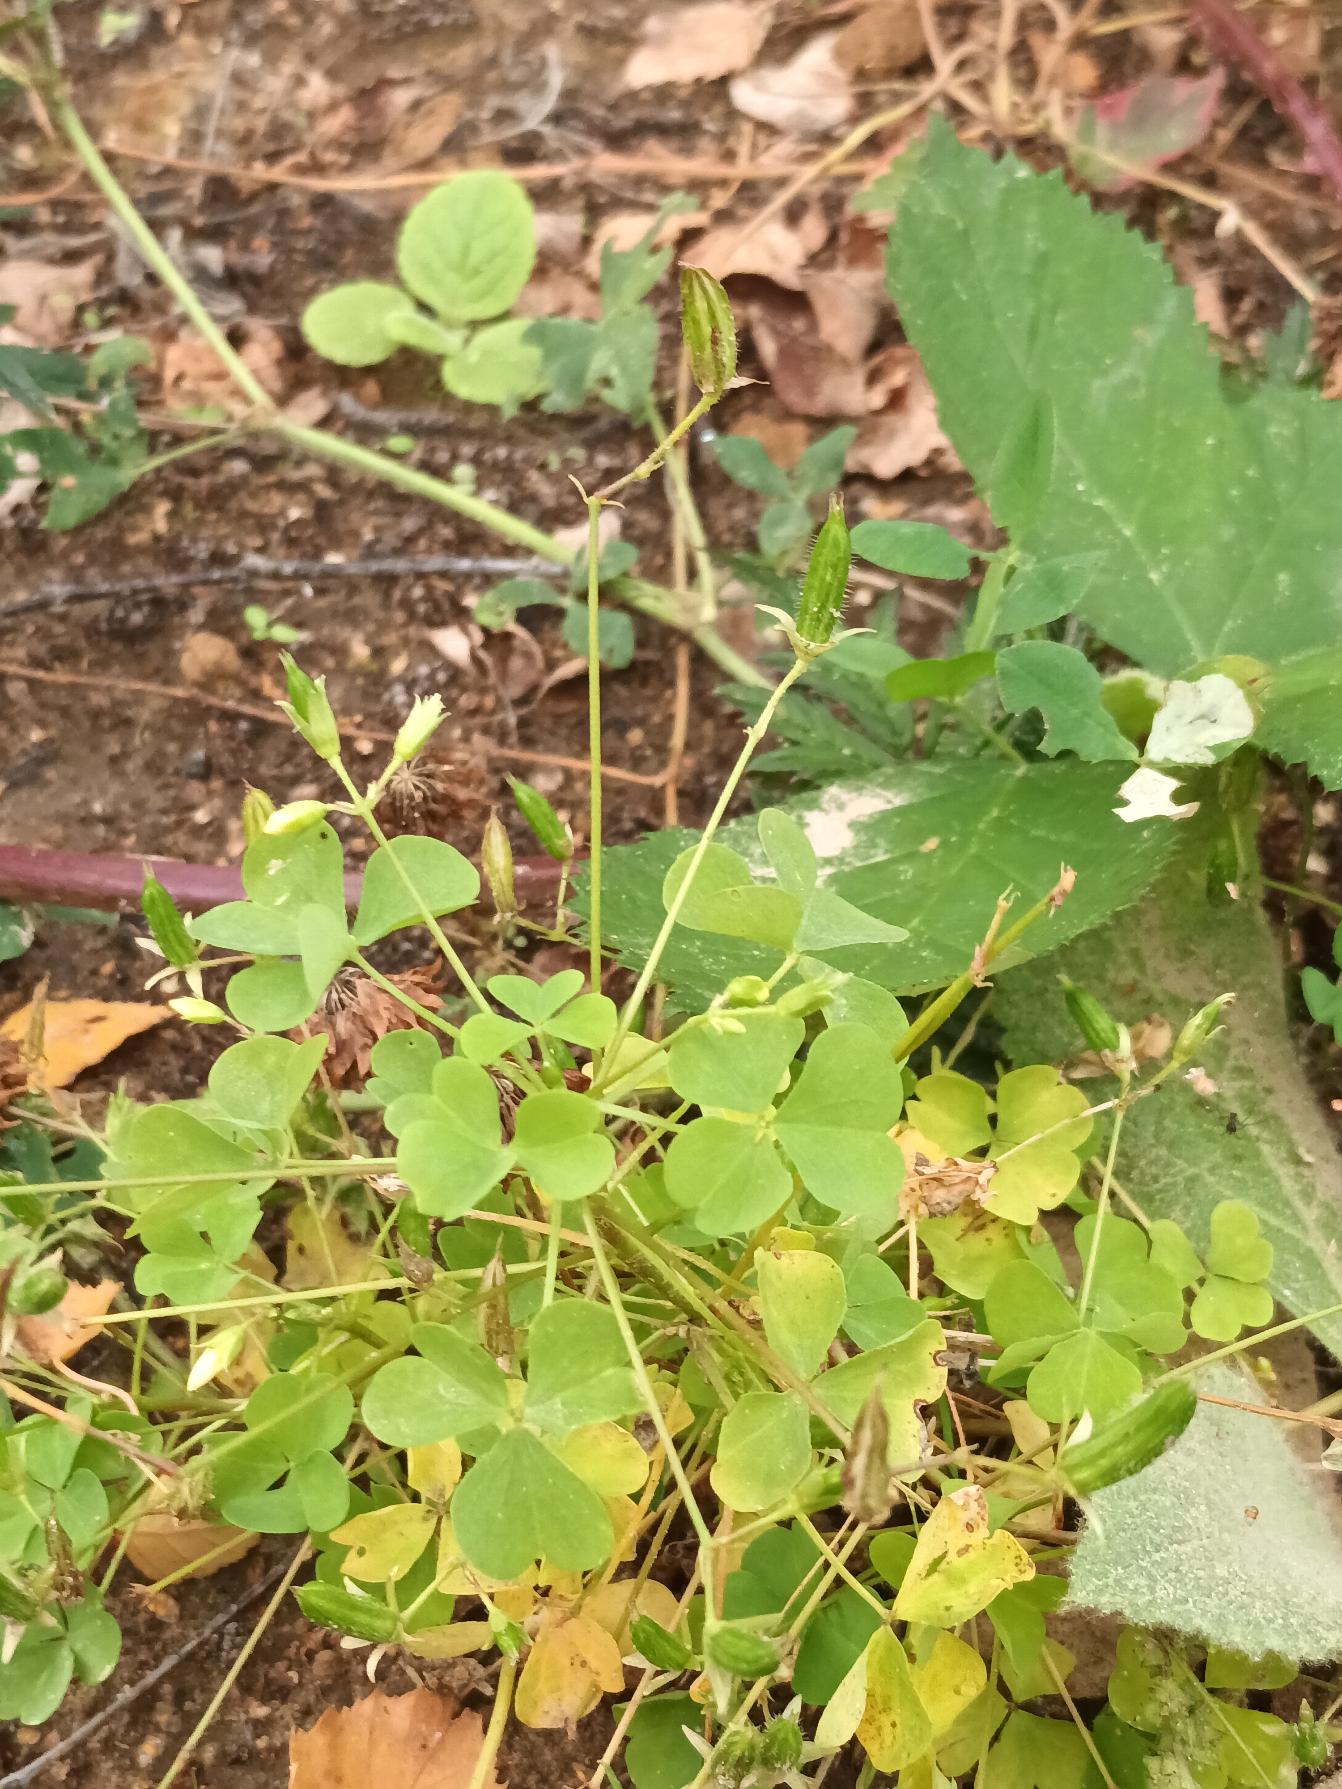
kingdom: Plantae
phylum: Tracheophyta
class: Magnoliopsida
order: Oxalidales
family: Oxalidaceae
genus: Oxalis
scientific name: Oxalis stricta
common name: Rank surkløver
